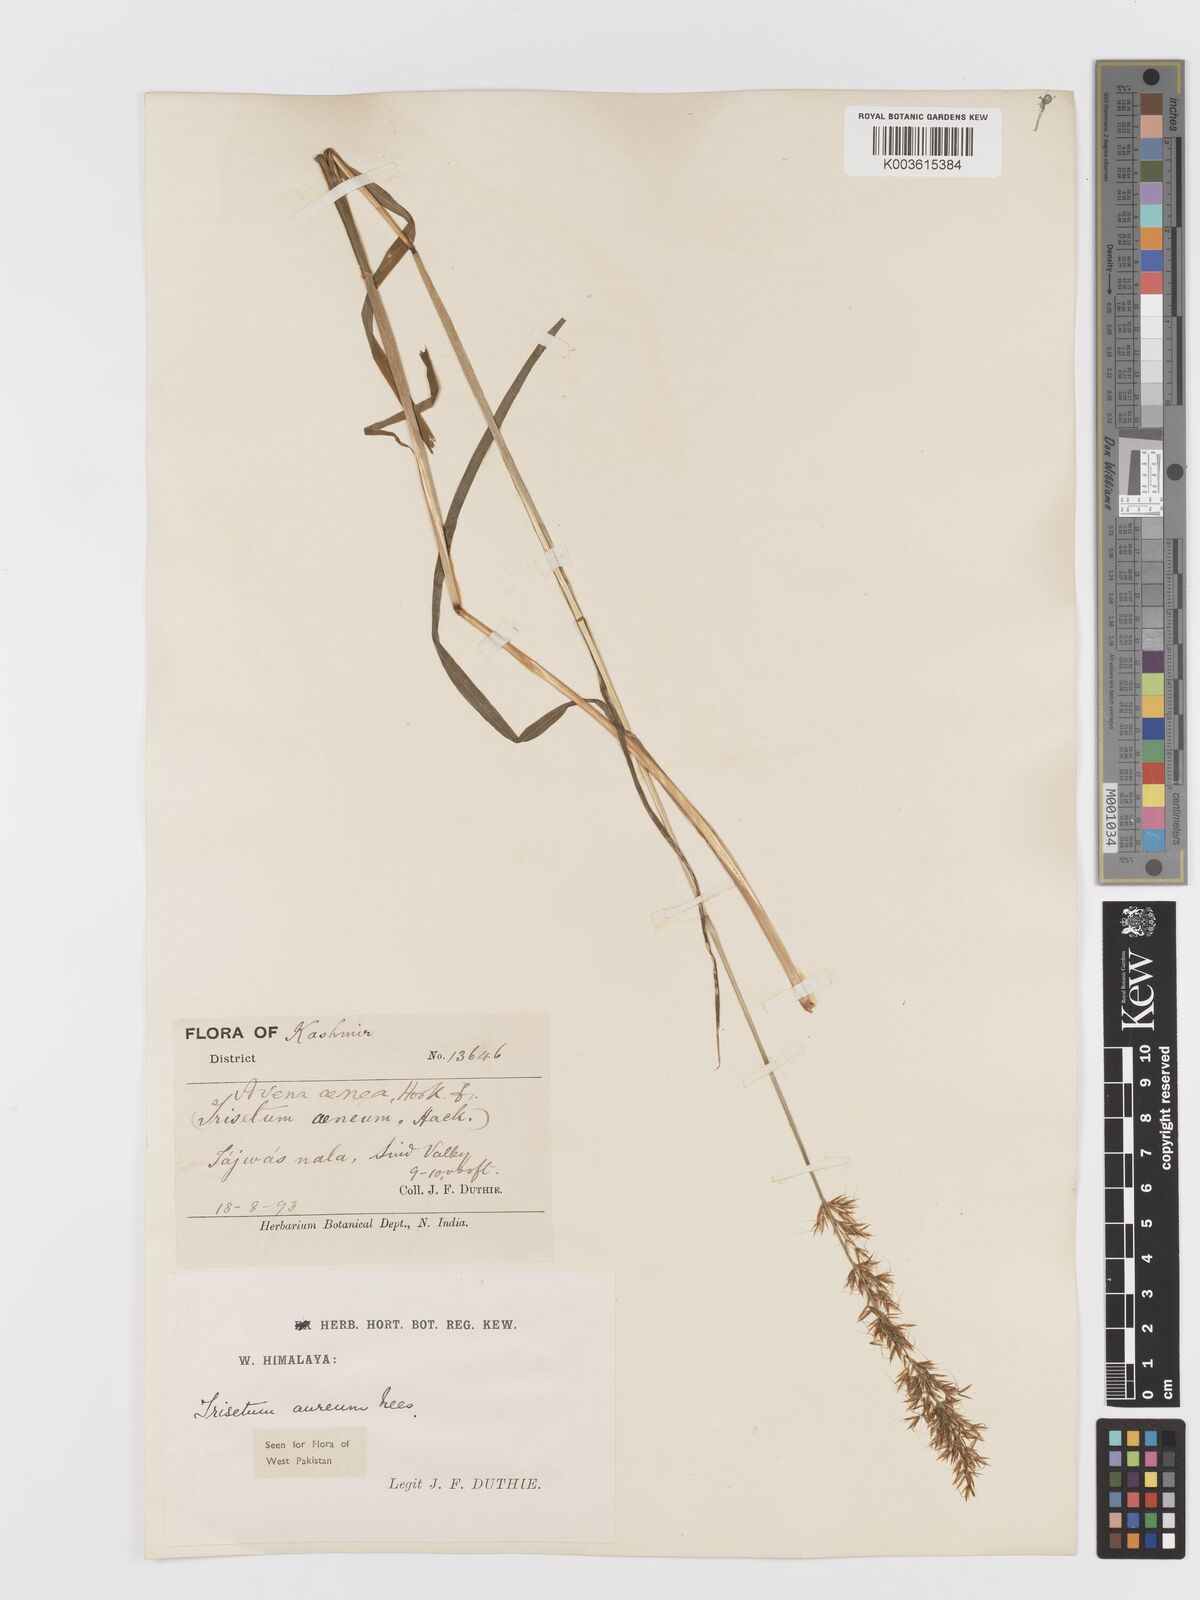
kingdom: Plantae
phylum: Tracheophyta
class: Liliopsida
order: Poales
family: Poaceae
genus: Sibirotrisetum
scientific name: Sibirotrisetum aeneum
